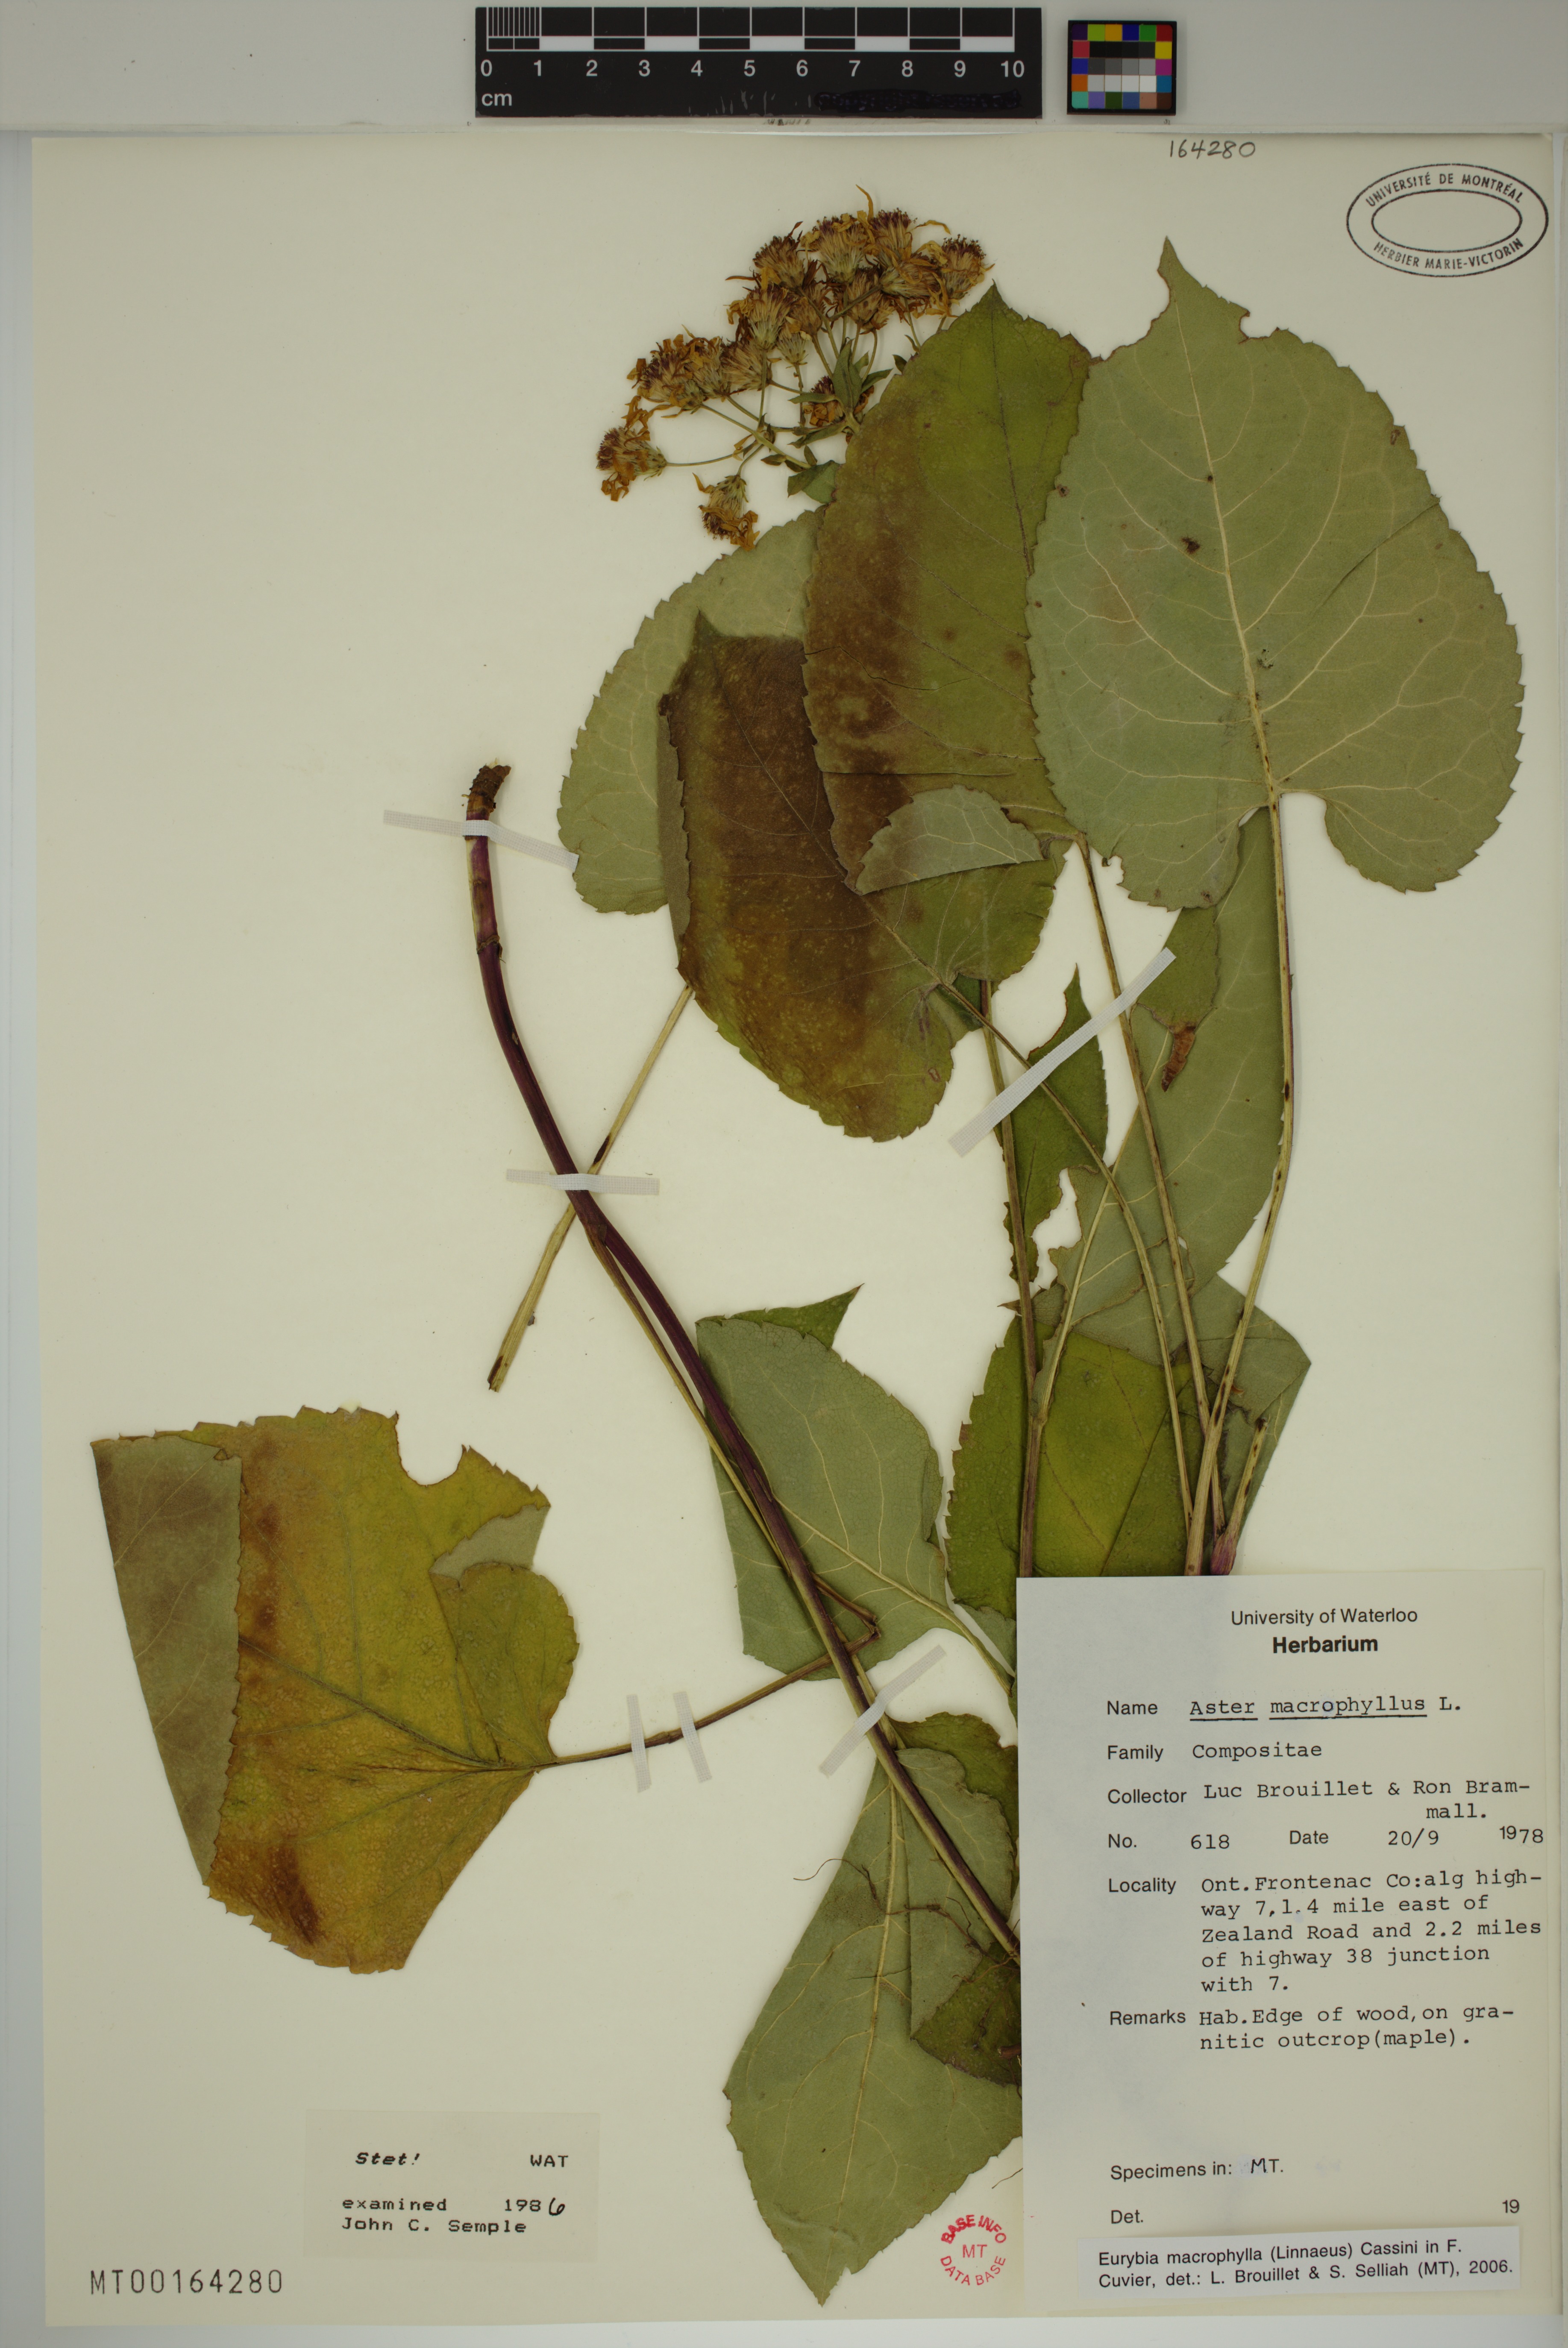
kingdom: Plantae
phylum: Tracheophyta
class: Magnoliopsida
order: Asterales
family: Asteraceae
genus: Eurybia
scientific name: Eurybia macrophylla
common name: Big-leaved aster
